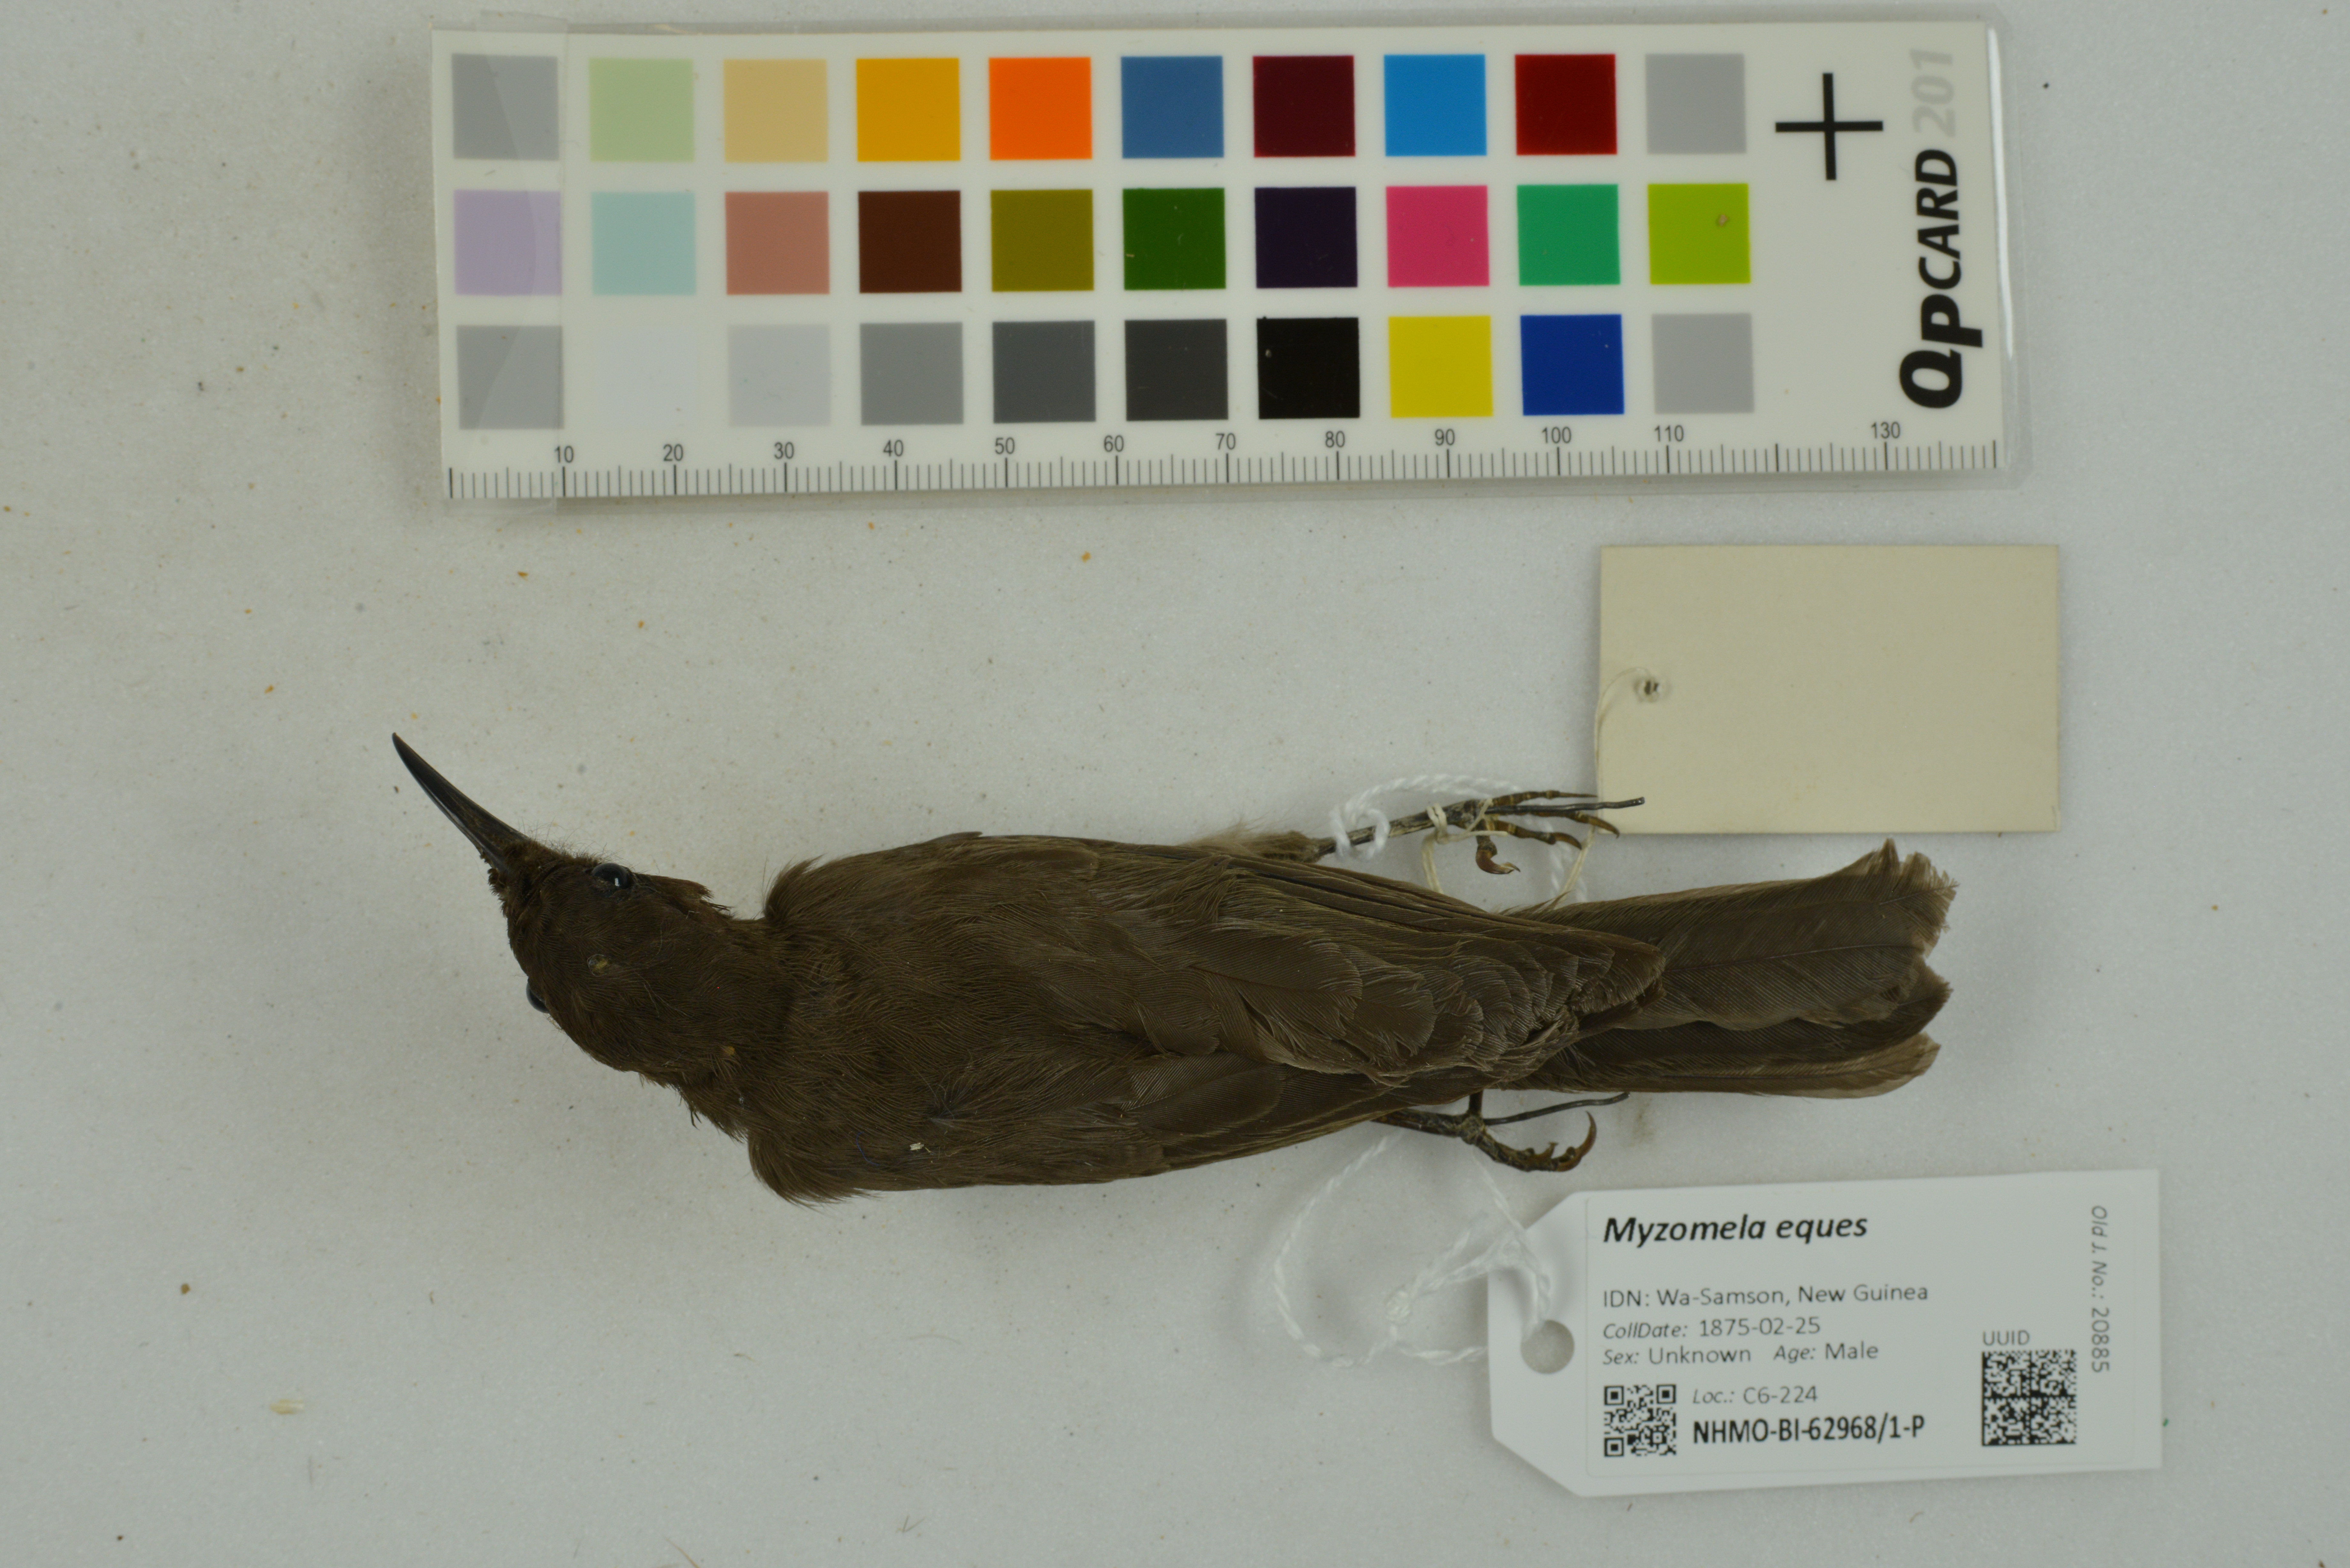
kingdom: Animalia
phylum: Chordata
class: Aves
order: Passeriformes
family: Meliphagidae
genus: Myzomela
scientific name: Myzomela eques
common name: Ruby-throated myzomela
